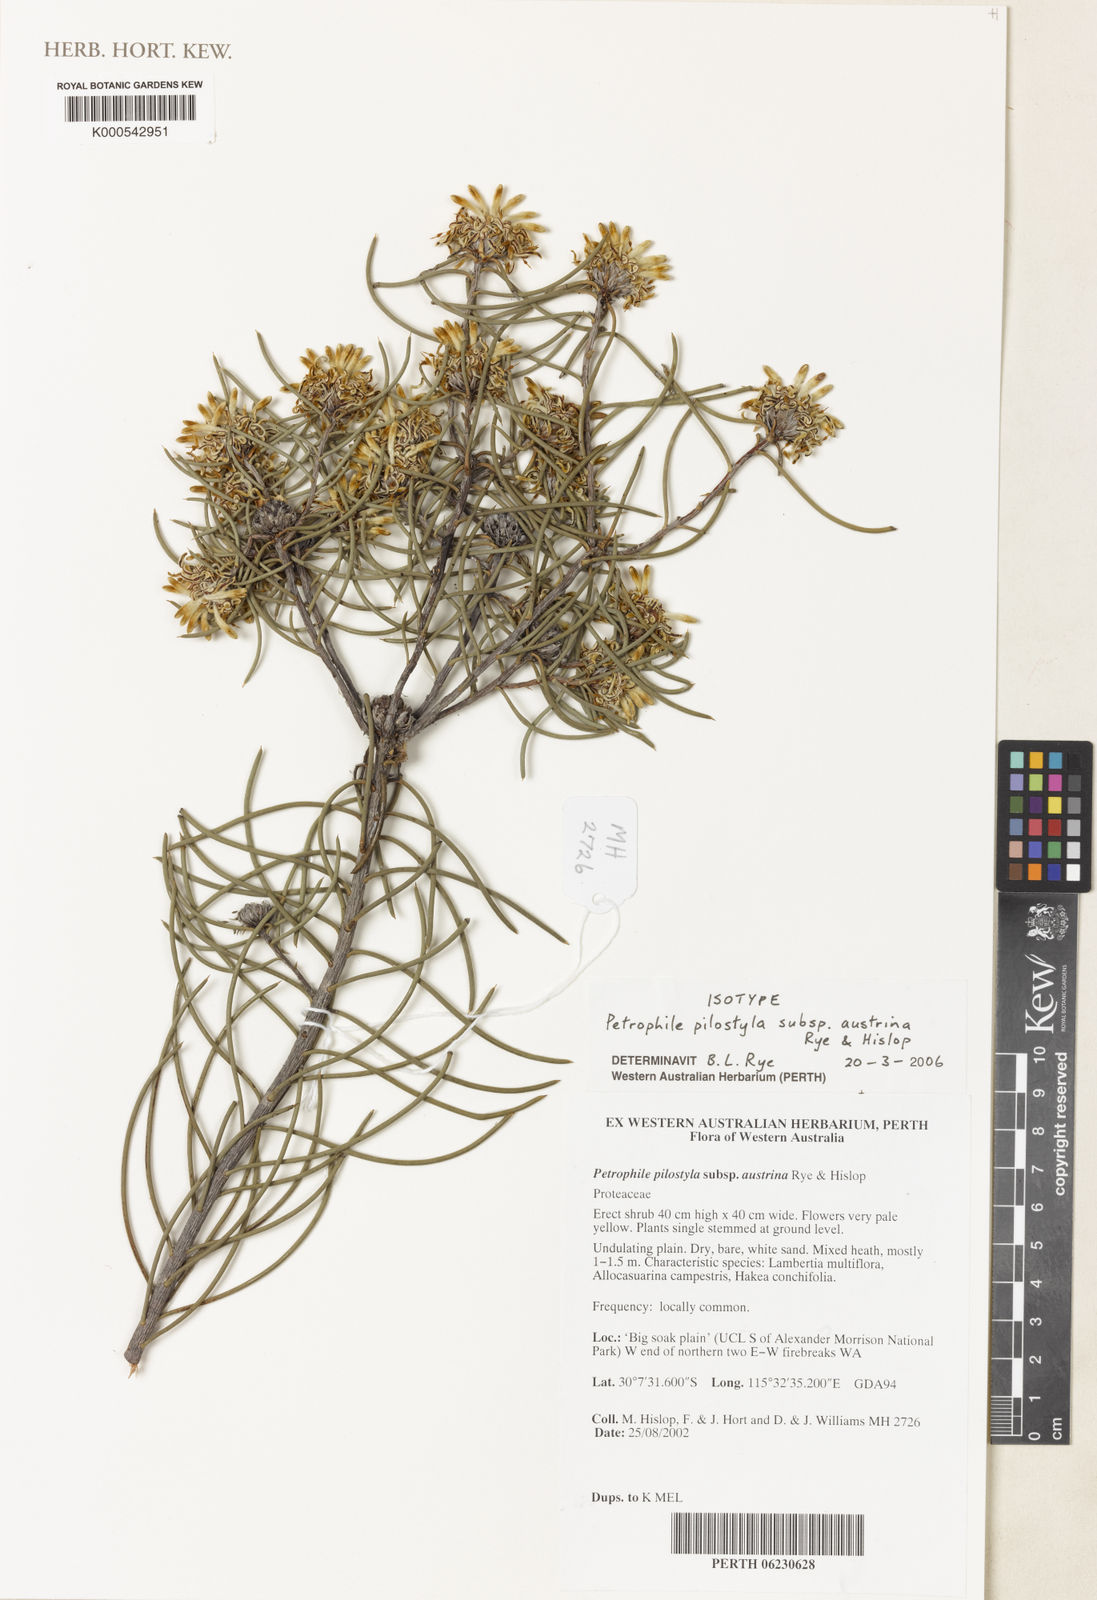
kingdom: Plantae
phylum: Tracheophyta
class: Magnoliopsida
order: Proteales
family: Proteaceae
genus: Petrophile
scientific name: Petrophile
